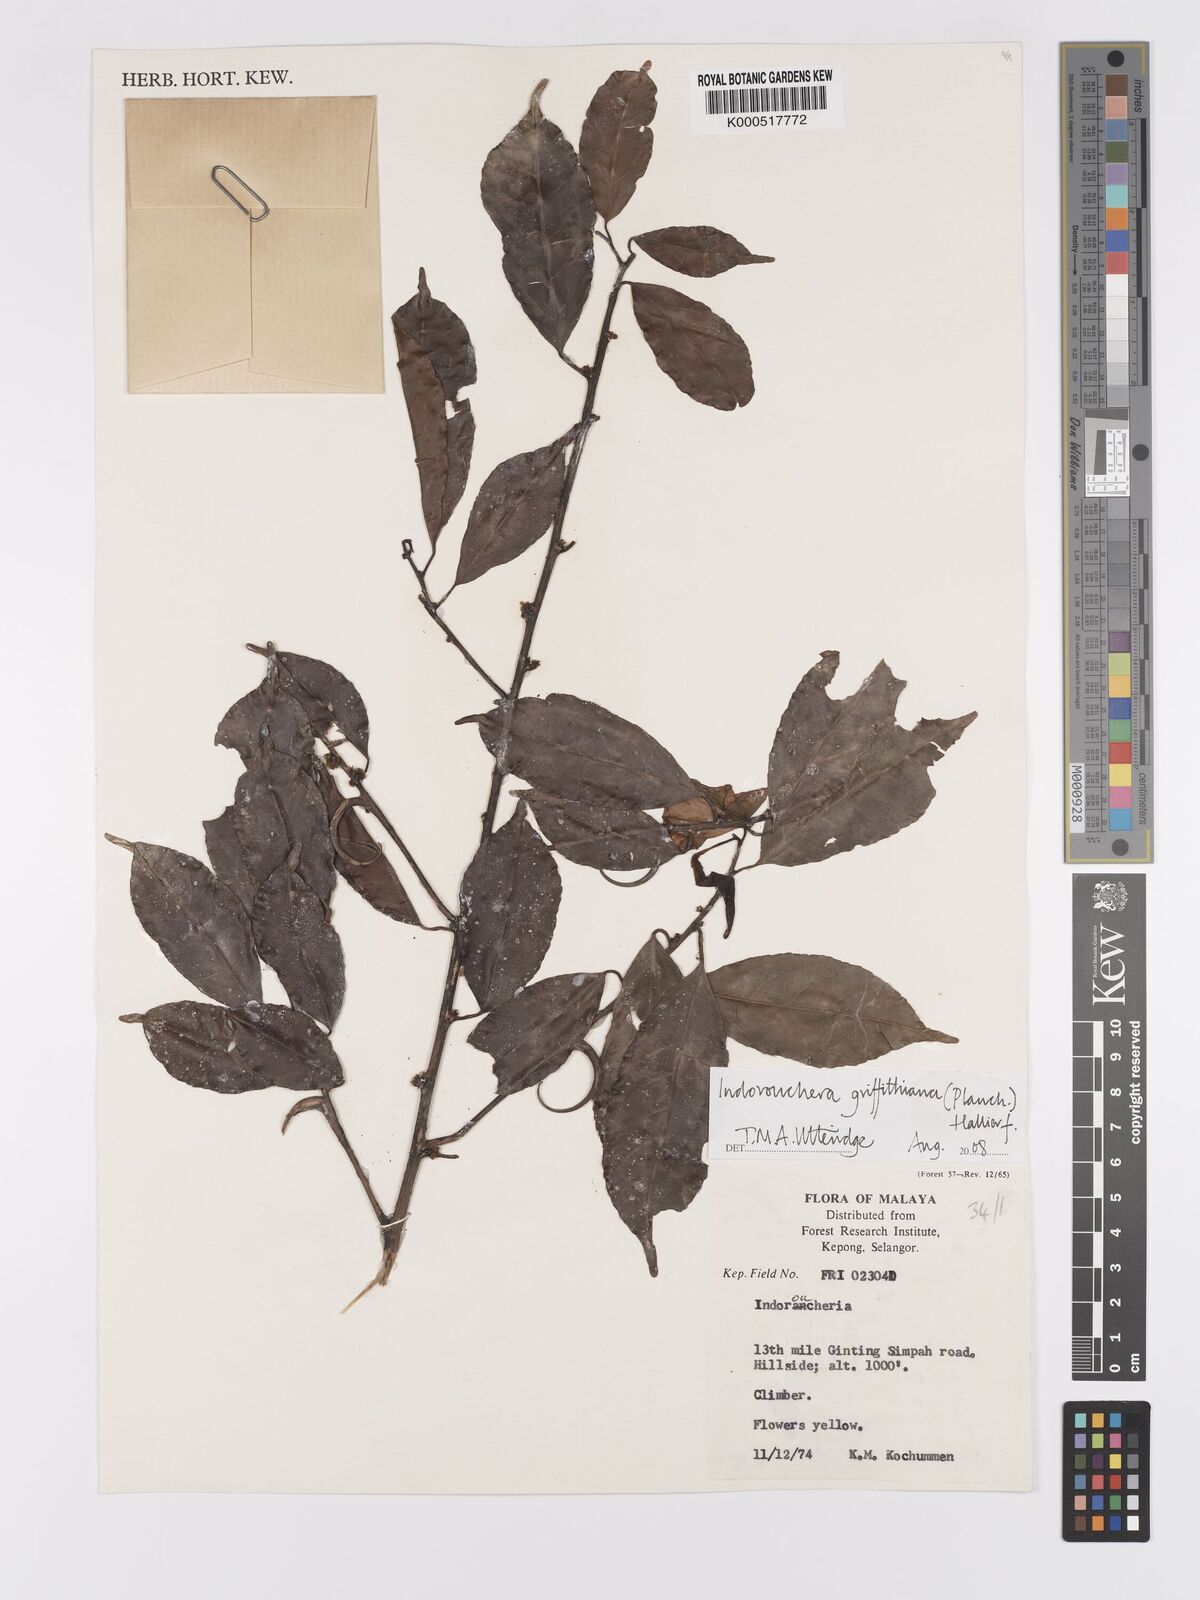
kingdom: Plantae
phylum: Tracheophyta
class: Magnoliopsida
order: Malpighiales
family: Linaceae
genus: Indorouchera
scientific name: Indorouchera griffithiana
